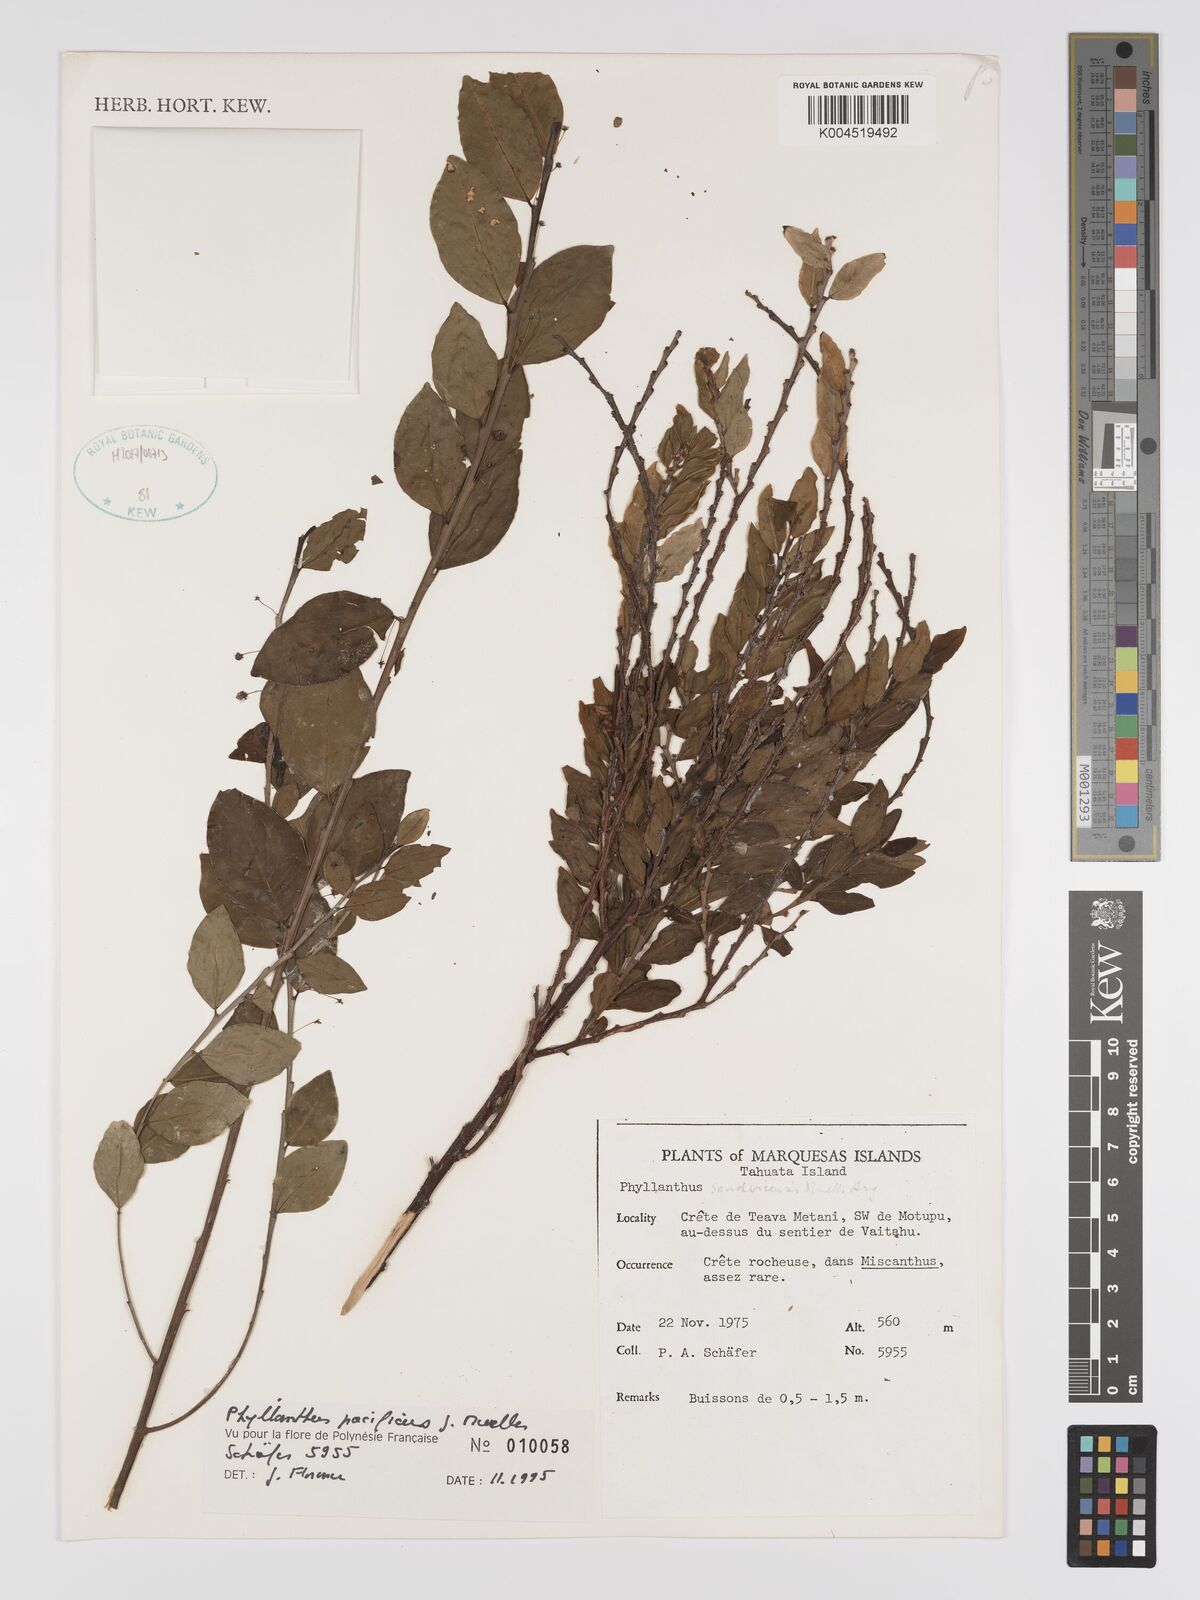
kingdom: Plantae
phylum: Tracheophyta
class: Magnoliopsida
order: Malpighiales
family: Phyllanthaceae
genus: Phyllanthus
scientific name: Phyllanthus pacificus
